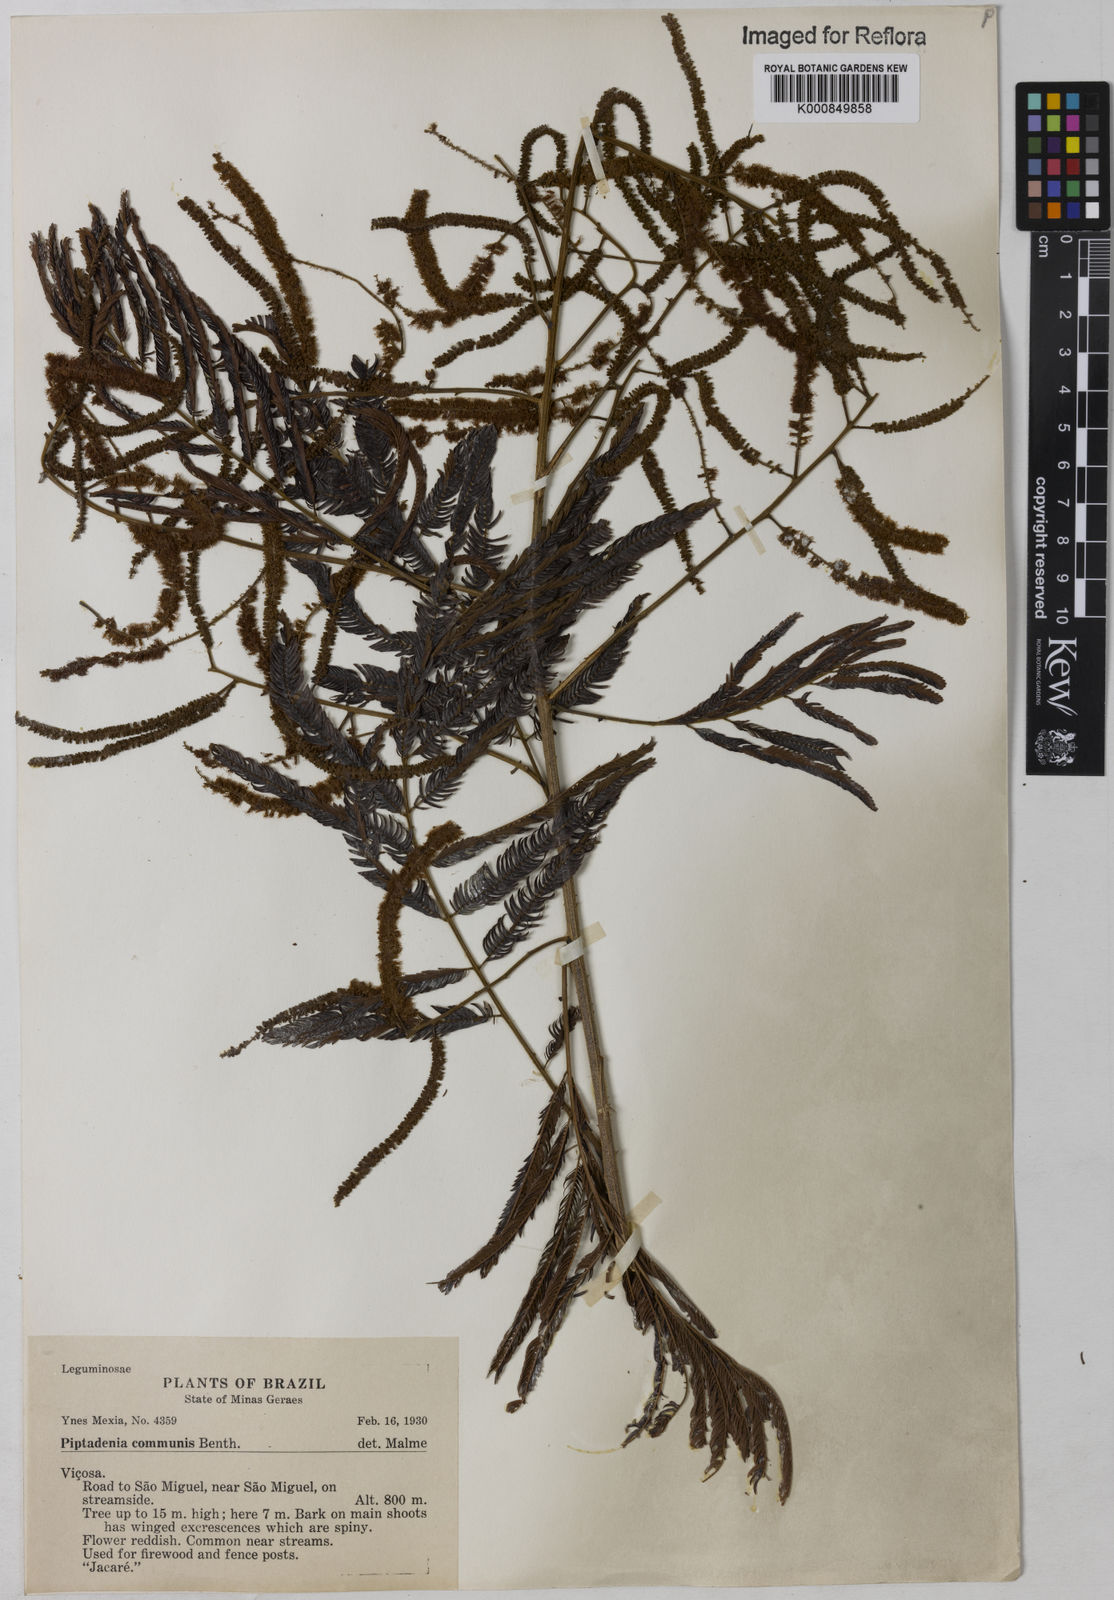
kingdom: Plantae
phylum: Tracheophyta
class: Magnoliopsida
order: Fabales
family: Fabaceae
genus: Piptadenia
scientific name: Piptadenia gonoacantha
